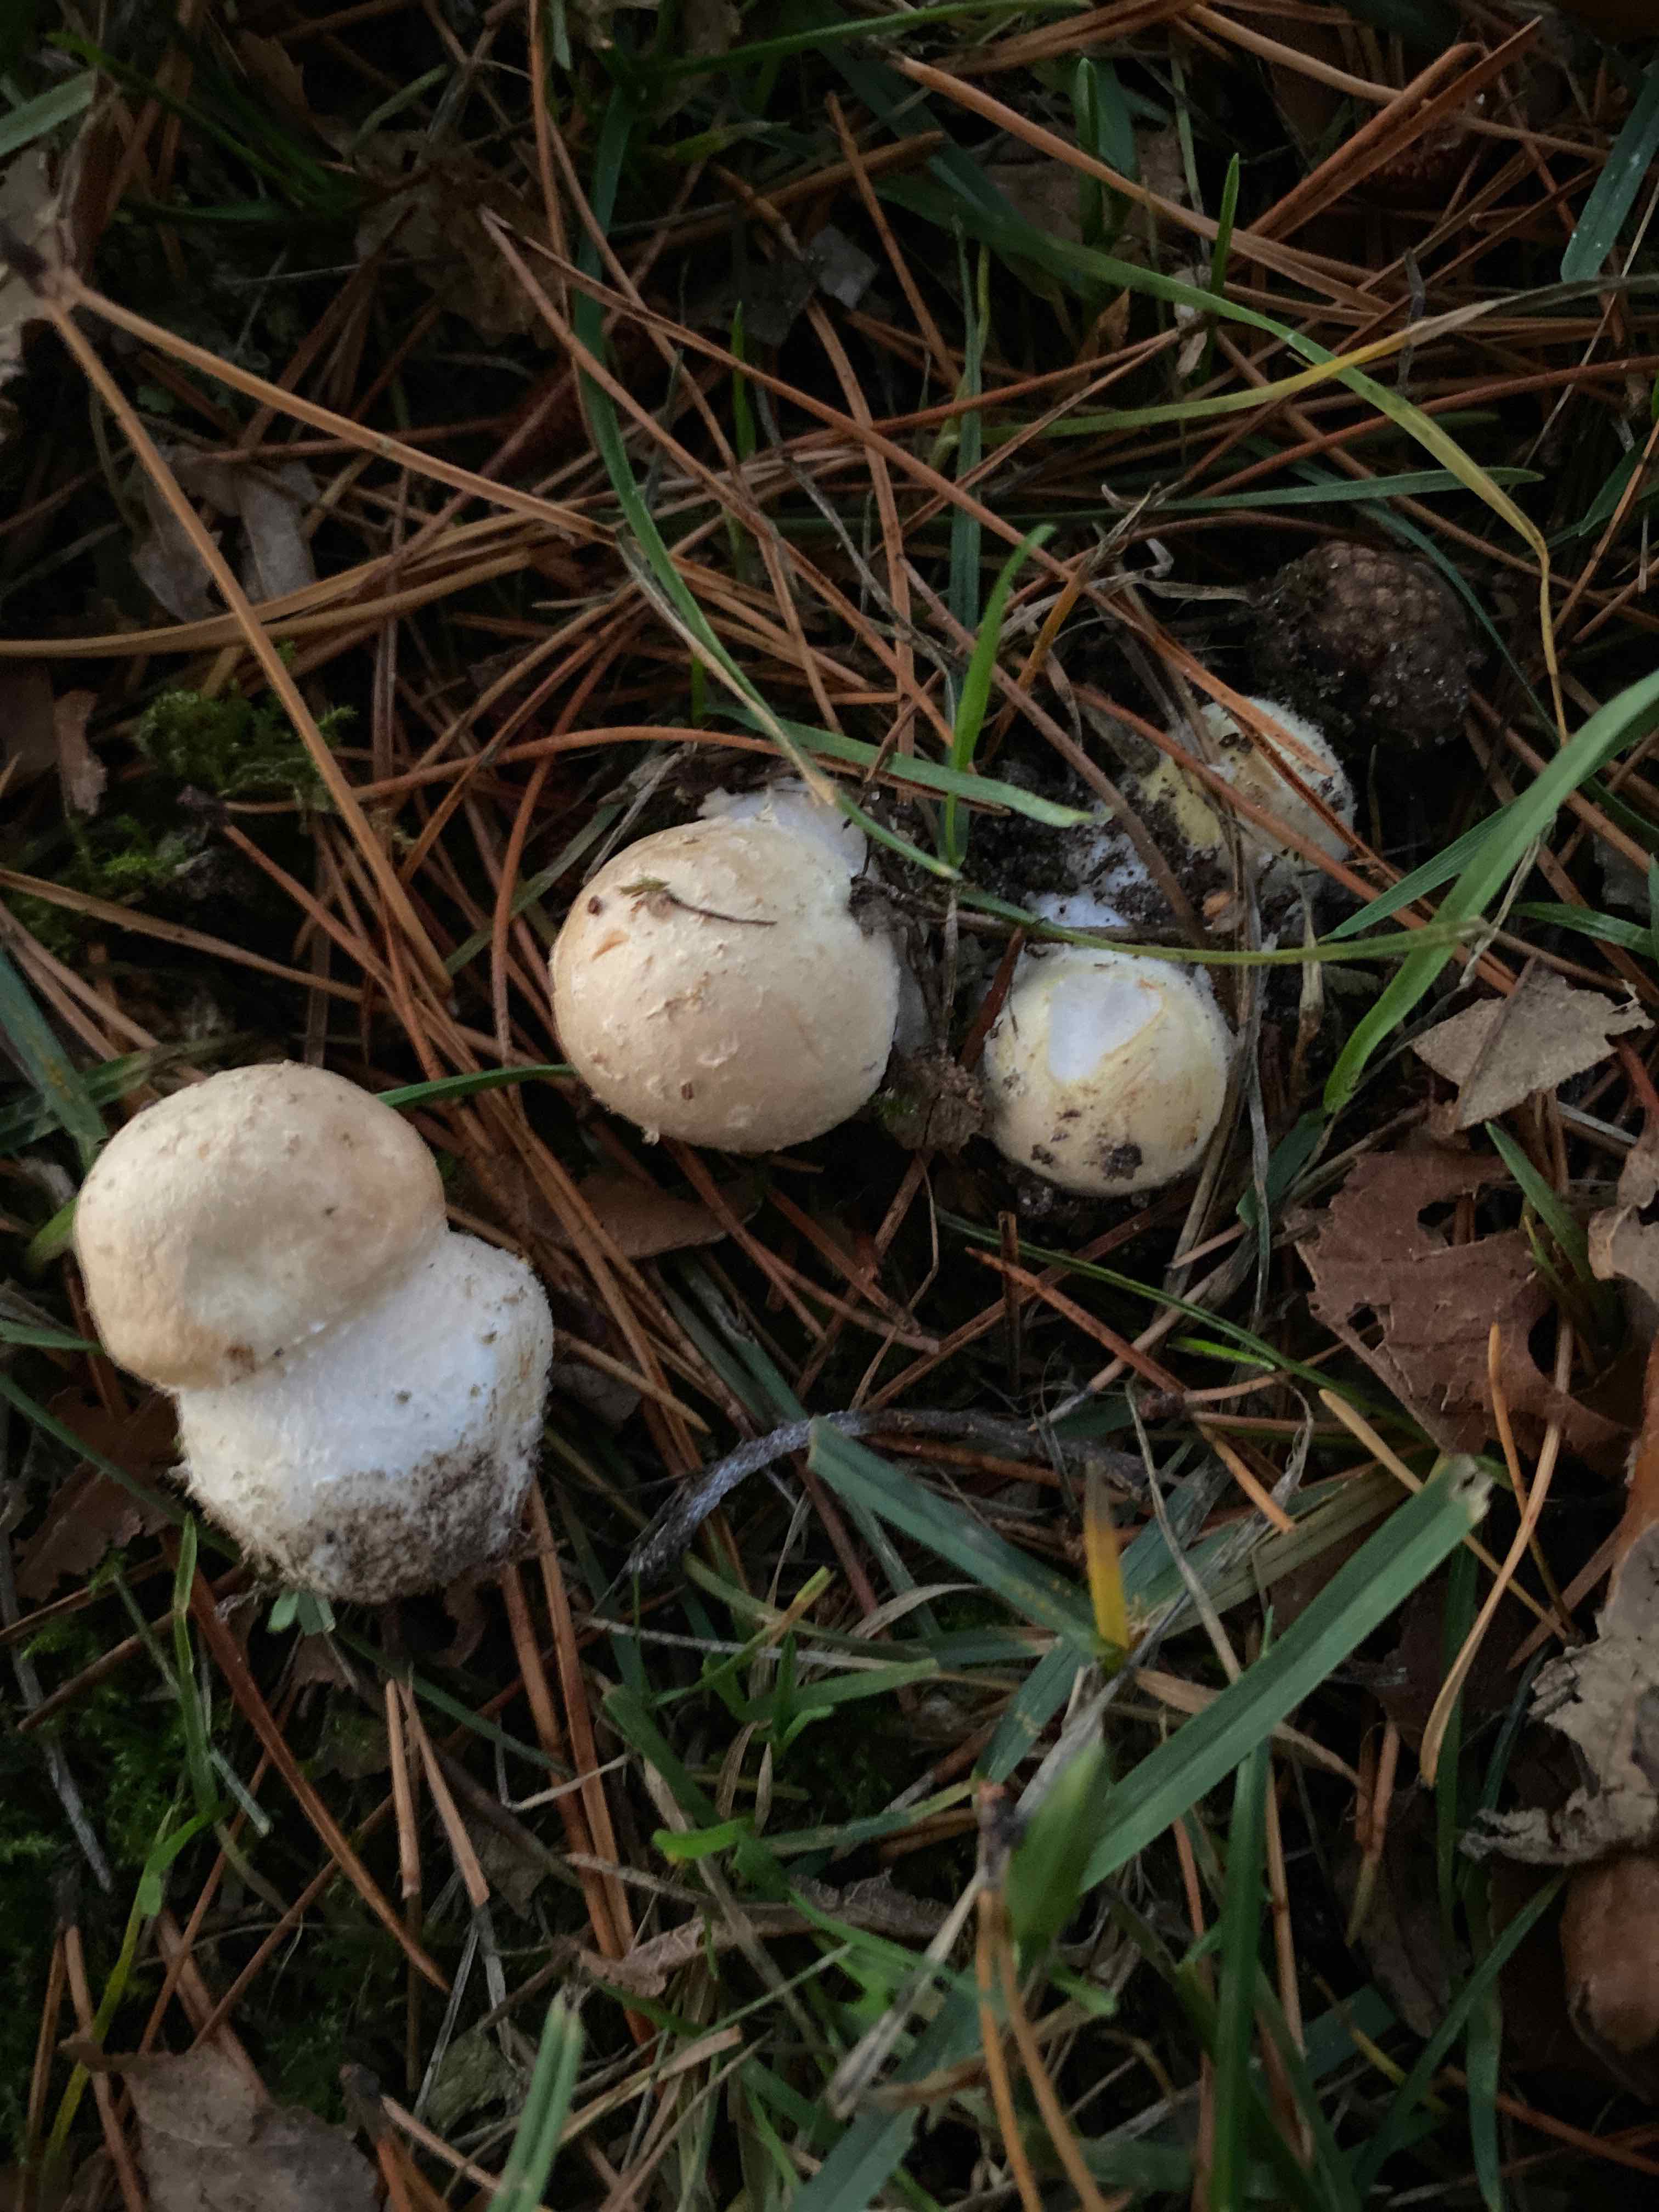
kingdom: Fungi
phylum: Basidiomycota
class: Agaricomycetes
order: Agaricales
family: Agaricaceae
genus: Agaricus
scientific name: Agaricus
